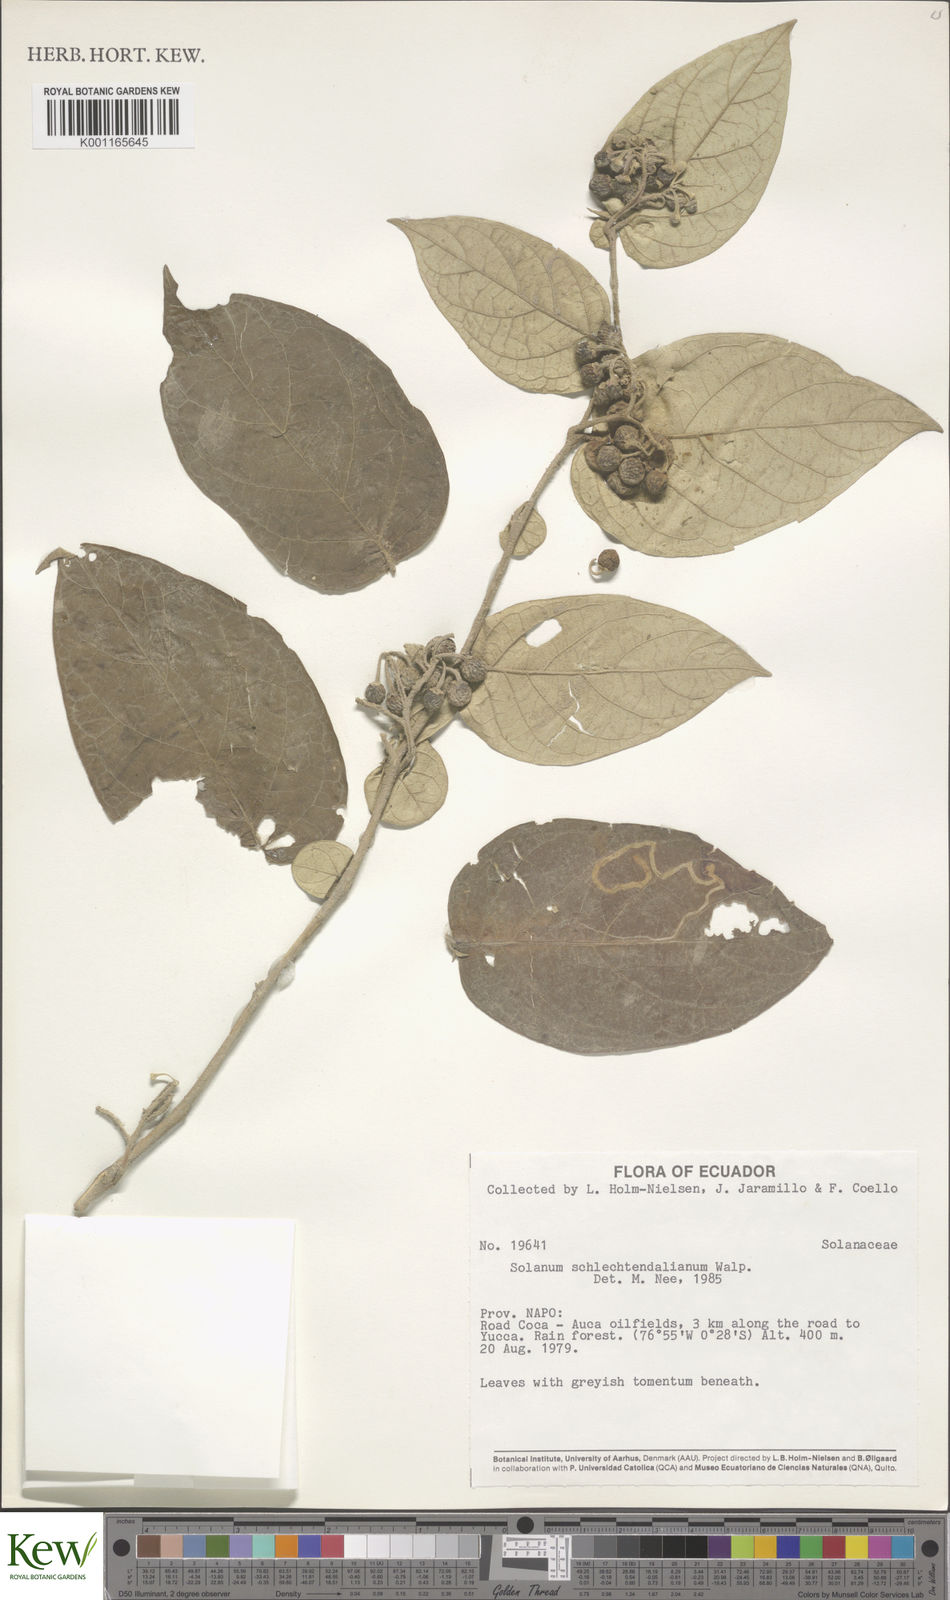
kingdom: Plantae
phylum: Tracheophyta
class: Magnoliopsida
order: Solanales
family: Solanaceae
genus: Solanum
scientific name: Solanum schlechtendalianum
